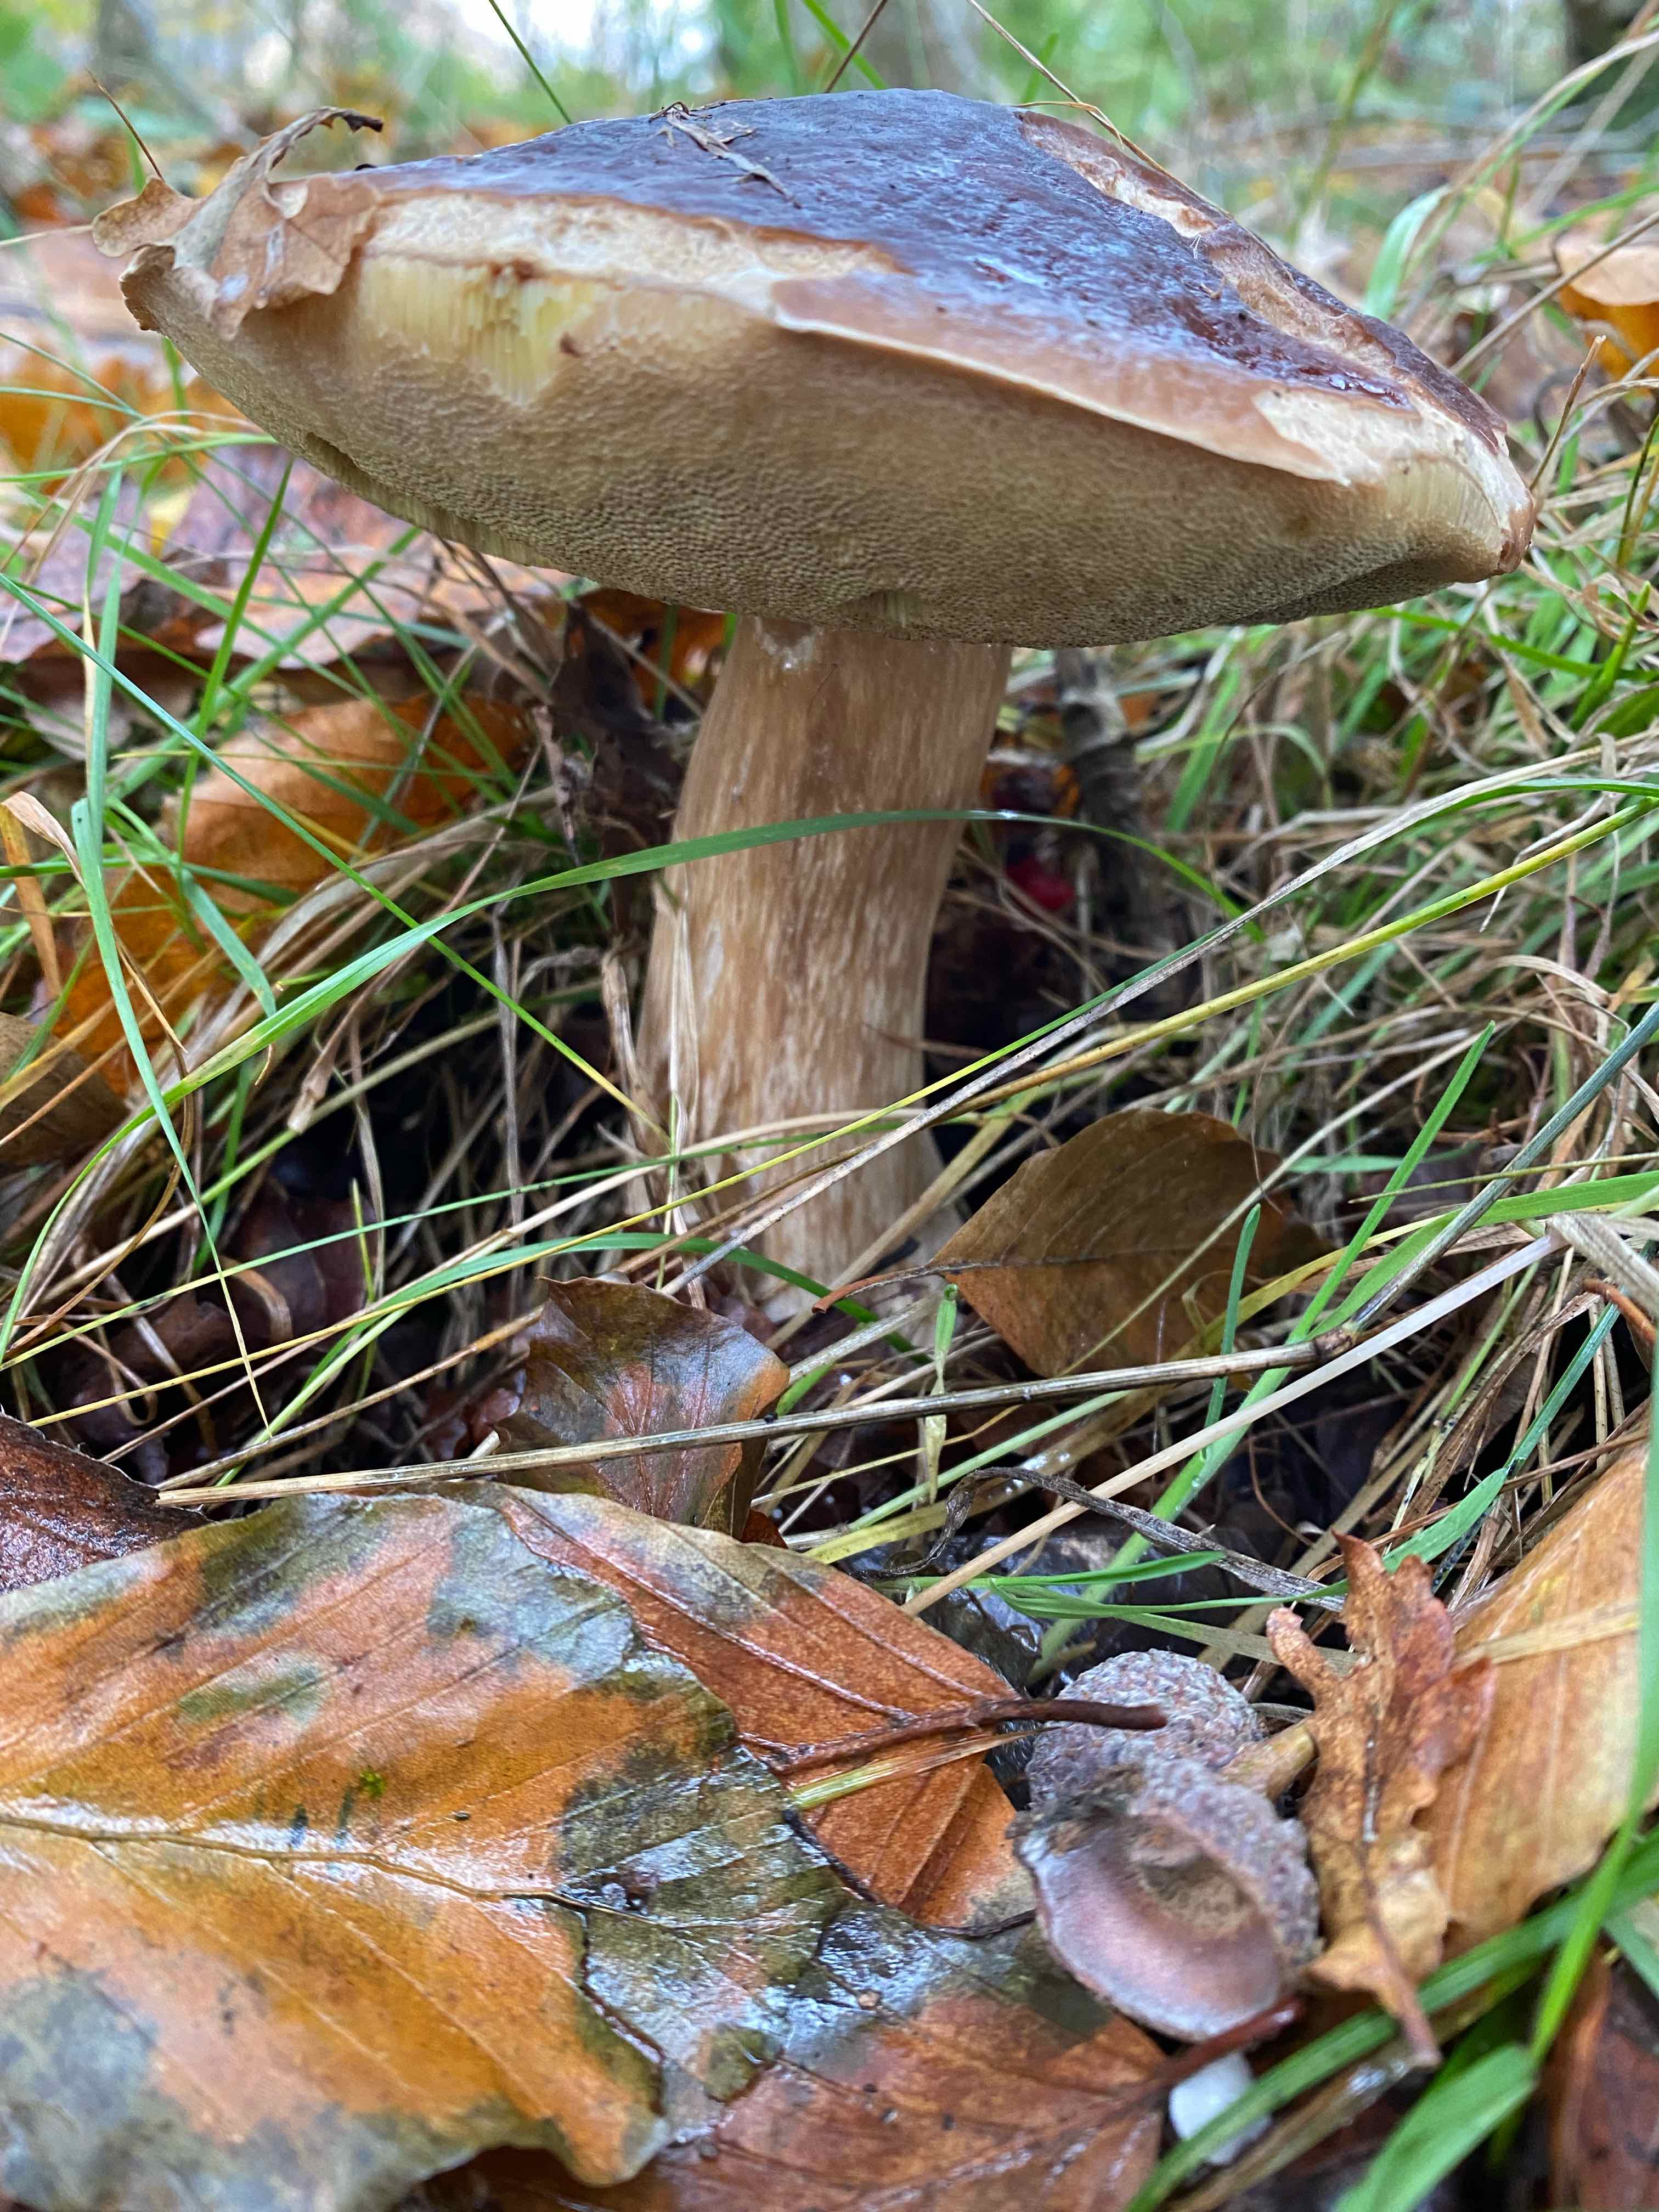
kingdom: Fungi
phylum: Basidiomycota
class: Agaricomycetes
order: Boletales
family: Boletaceae
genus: Boletus
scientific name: Boletus edulis
